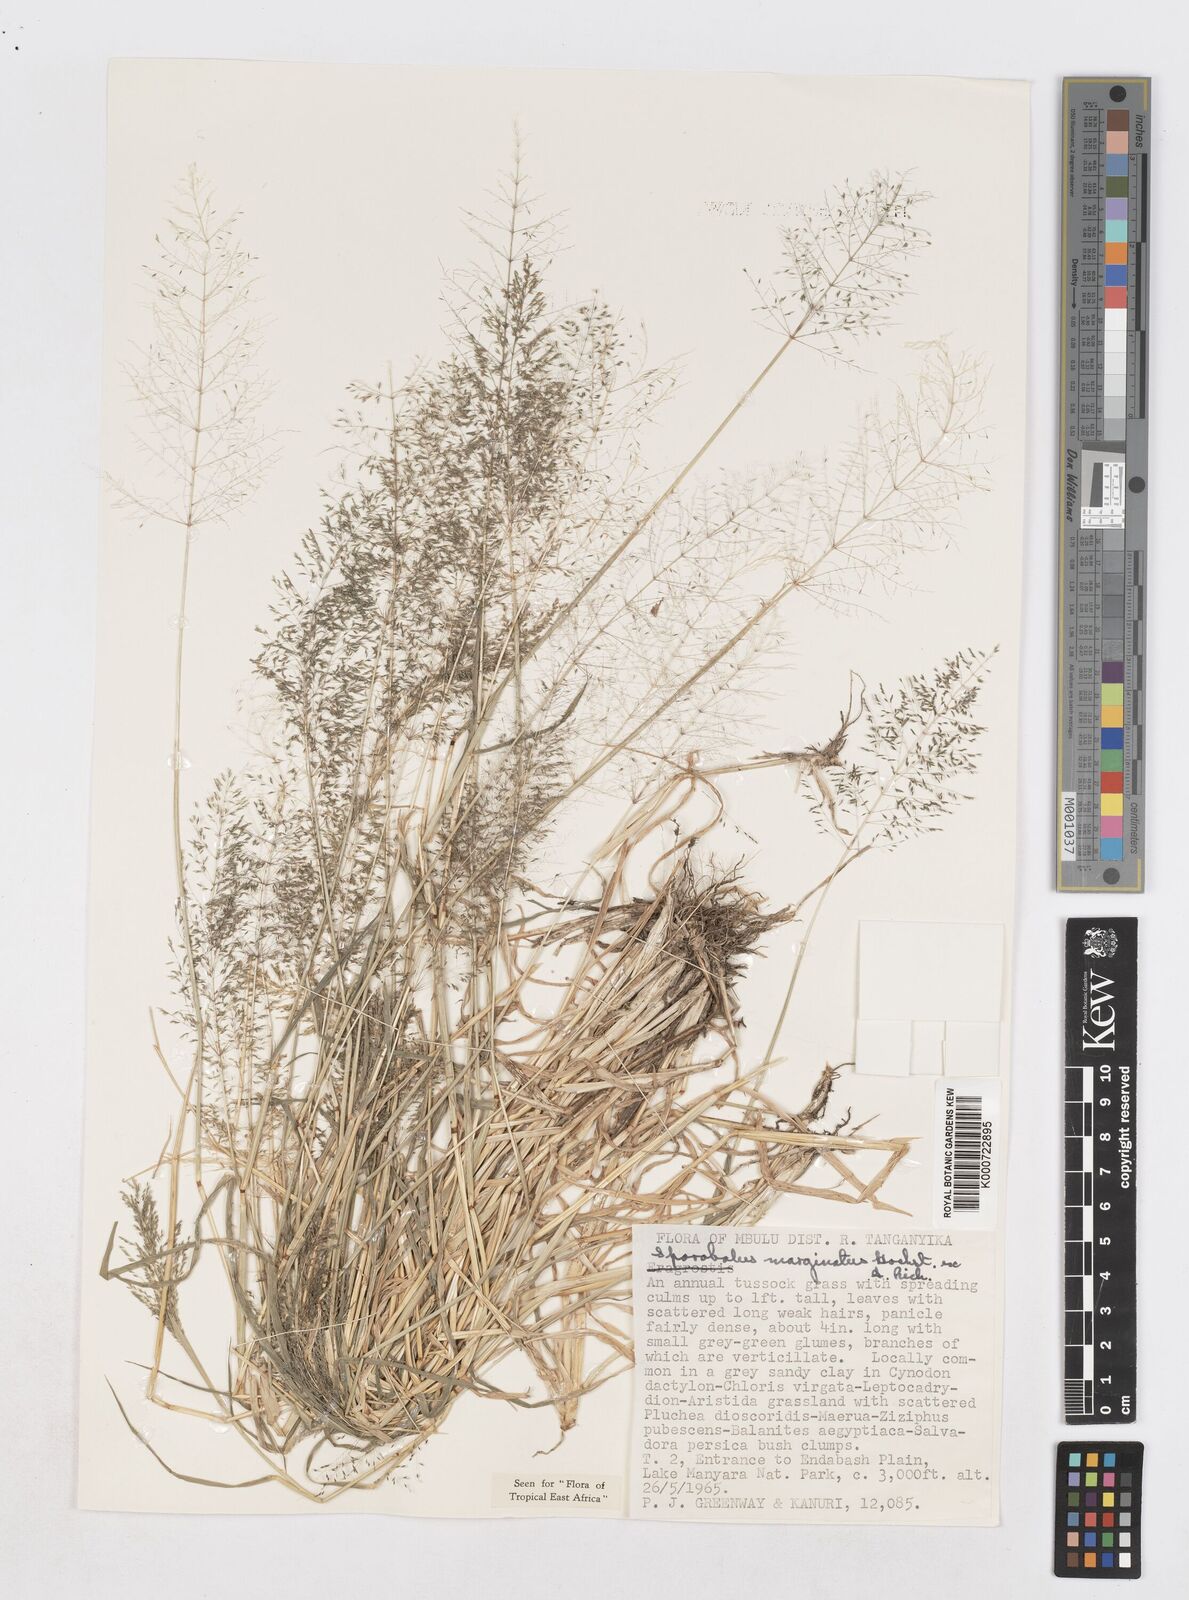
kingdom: Plantae
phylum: Tracheophyta
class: Liliopsida
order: Poales
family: Poaceae
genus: Sporobolus
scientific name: Sporobolus ioclados
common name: Pan dropseed
